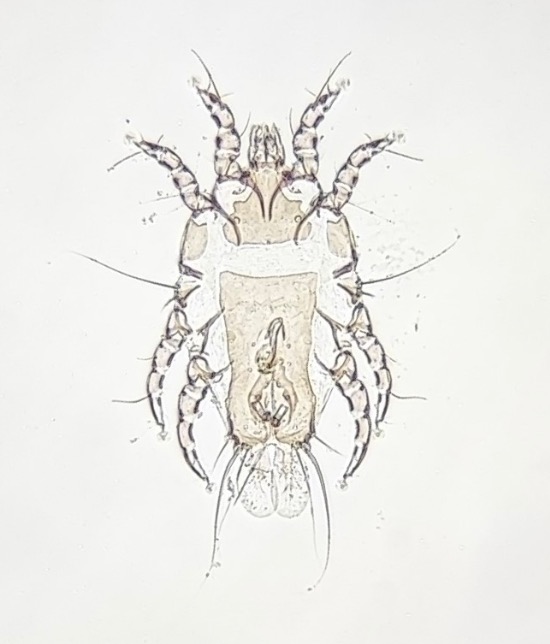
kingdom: Animalia
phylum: Arthropoda
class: Arachnida
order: Sarcoptiformes
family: Proctophyllodidae
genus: Proctophyllodes
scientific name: Proctophyllodes fuchsi
